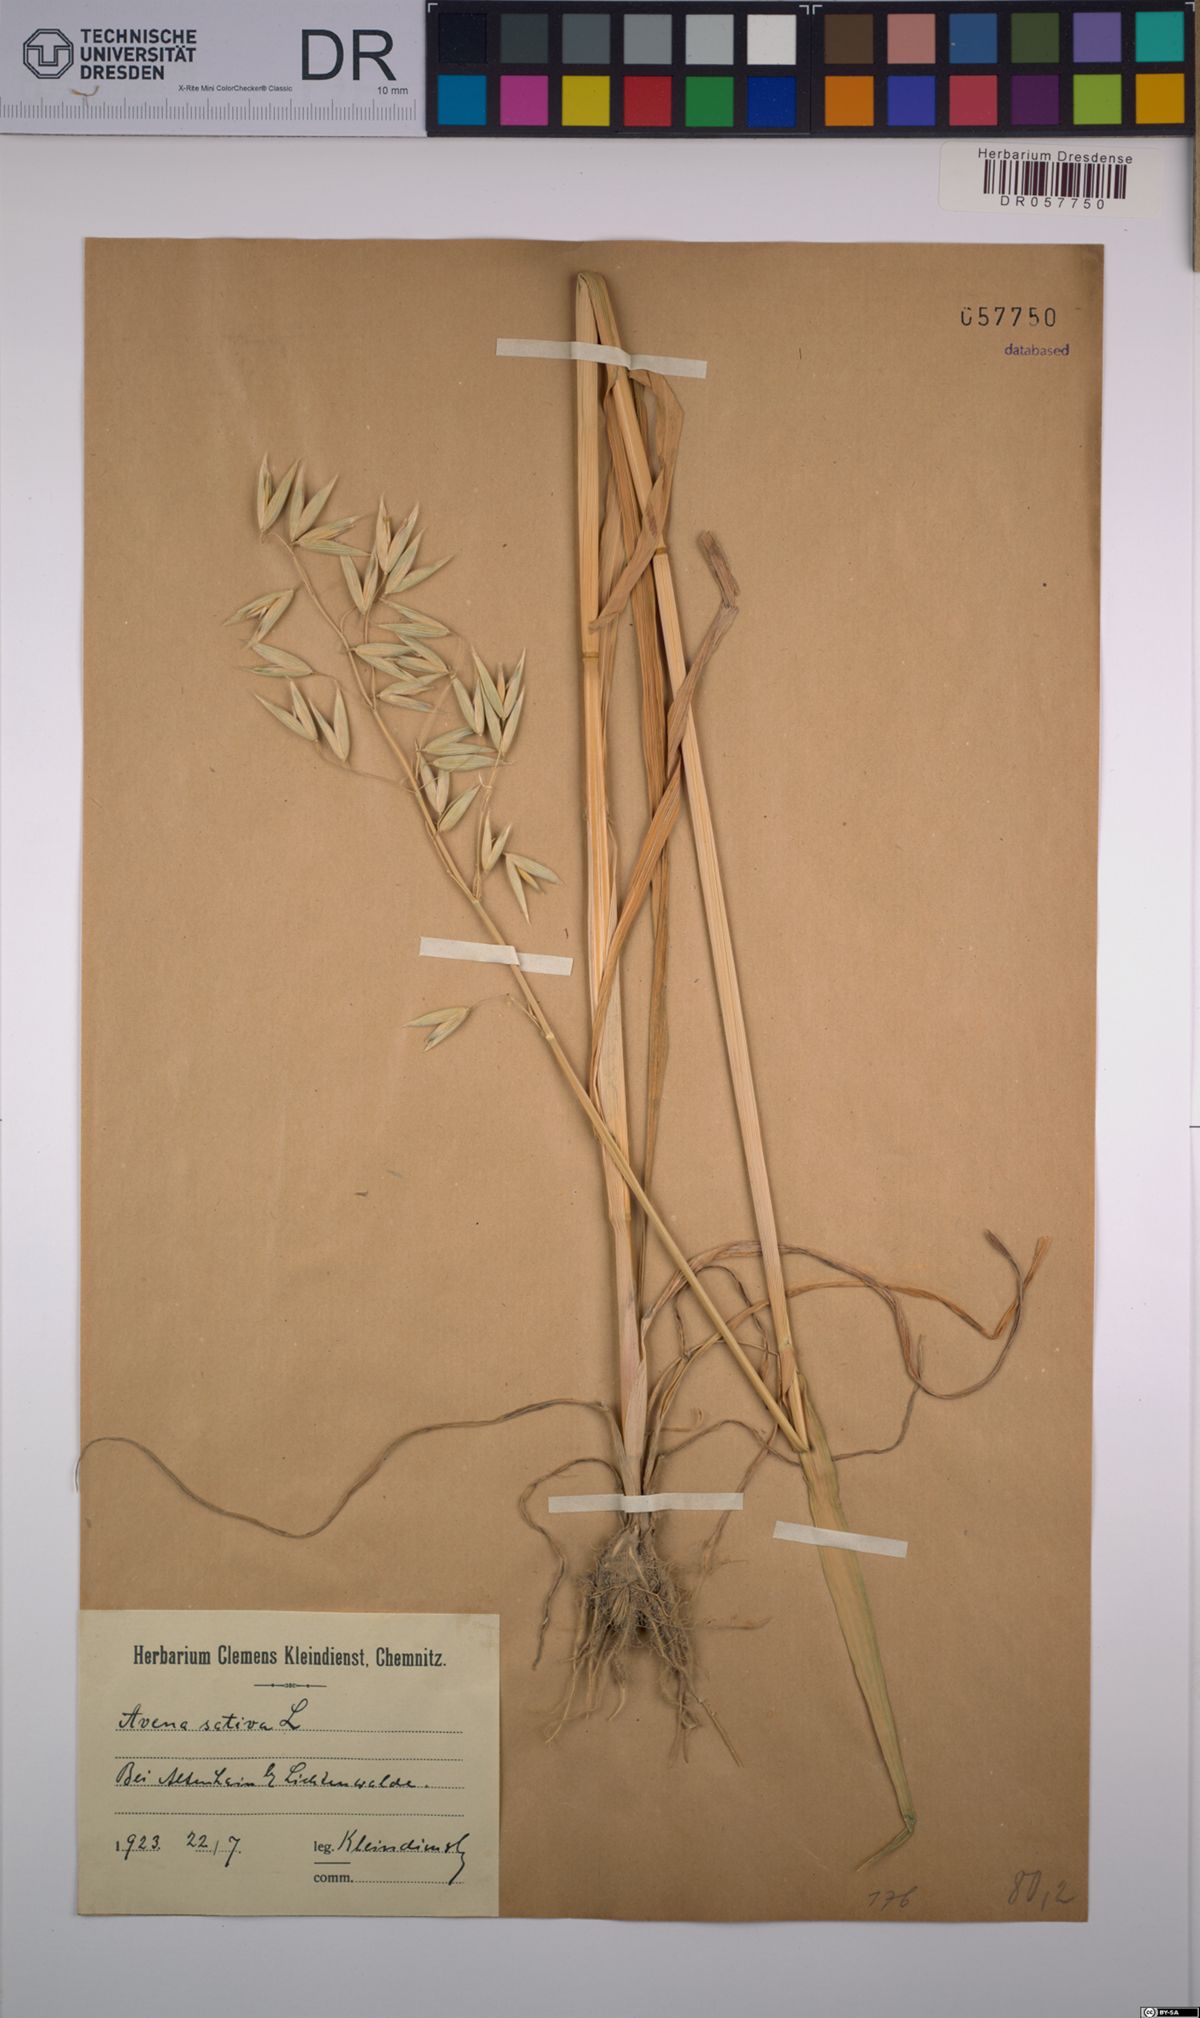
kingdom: Plantae
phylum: Tracheophyta
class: Liliopsida
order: Poales
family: Poaceae
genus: Avena
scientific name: Avena sativa
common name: Oat
